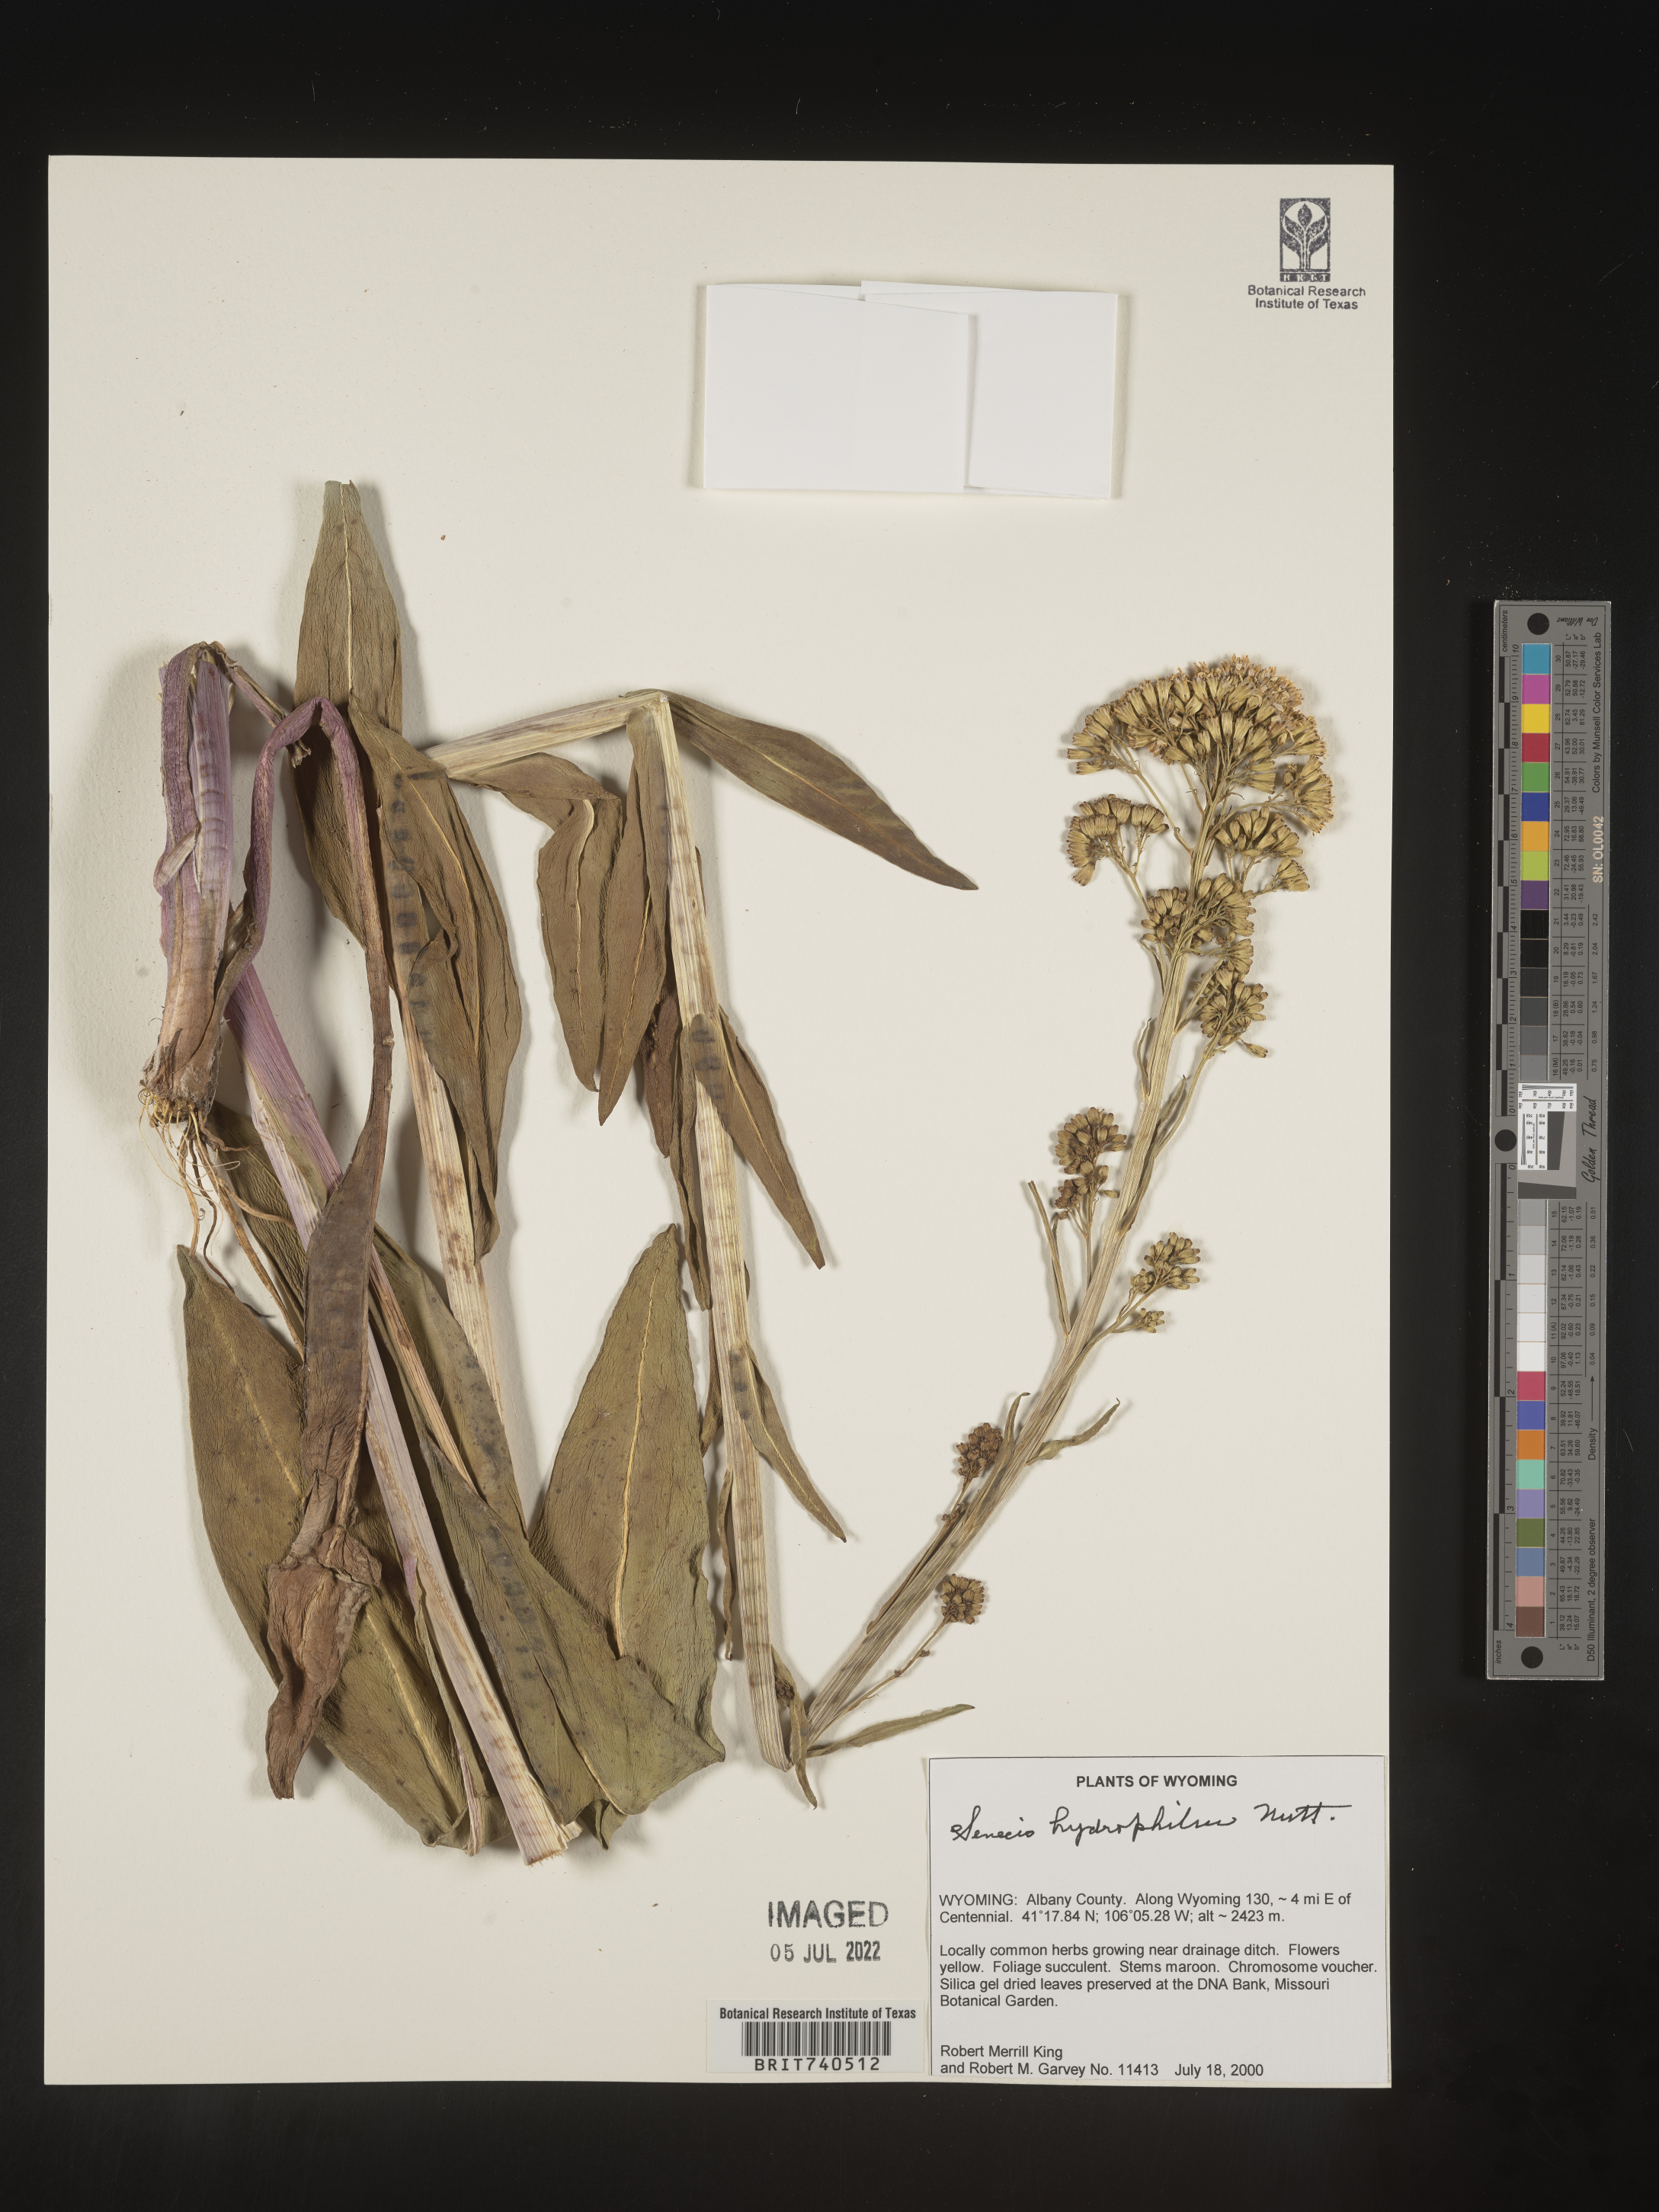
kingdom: Plantae
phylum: Tracheophyta
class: Magnoliopsida
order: Asterales
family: Asteraceae
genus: Senecio
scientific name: Senecio hydrophilus
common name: Water ragwort
